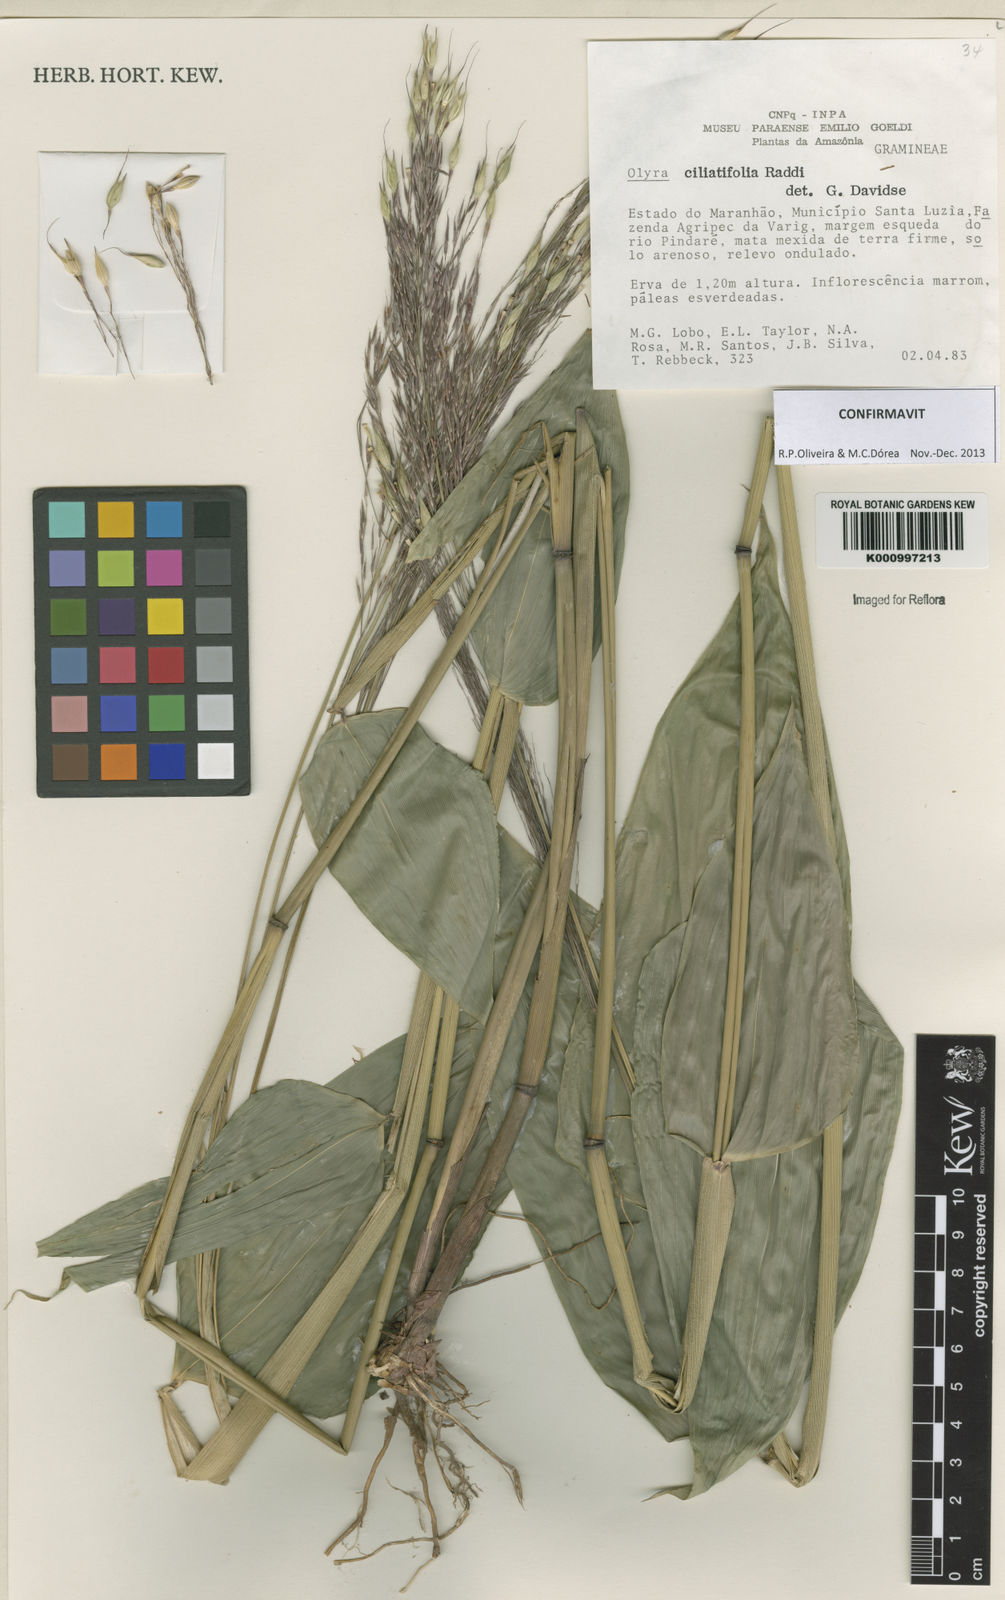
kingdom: Plantae
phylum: Tracheophyta
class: Liliopsida
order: Poales
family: Poaceae
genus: Olyra
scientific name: Olyra ciliatifolia
